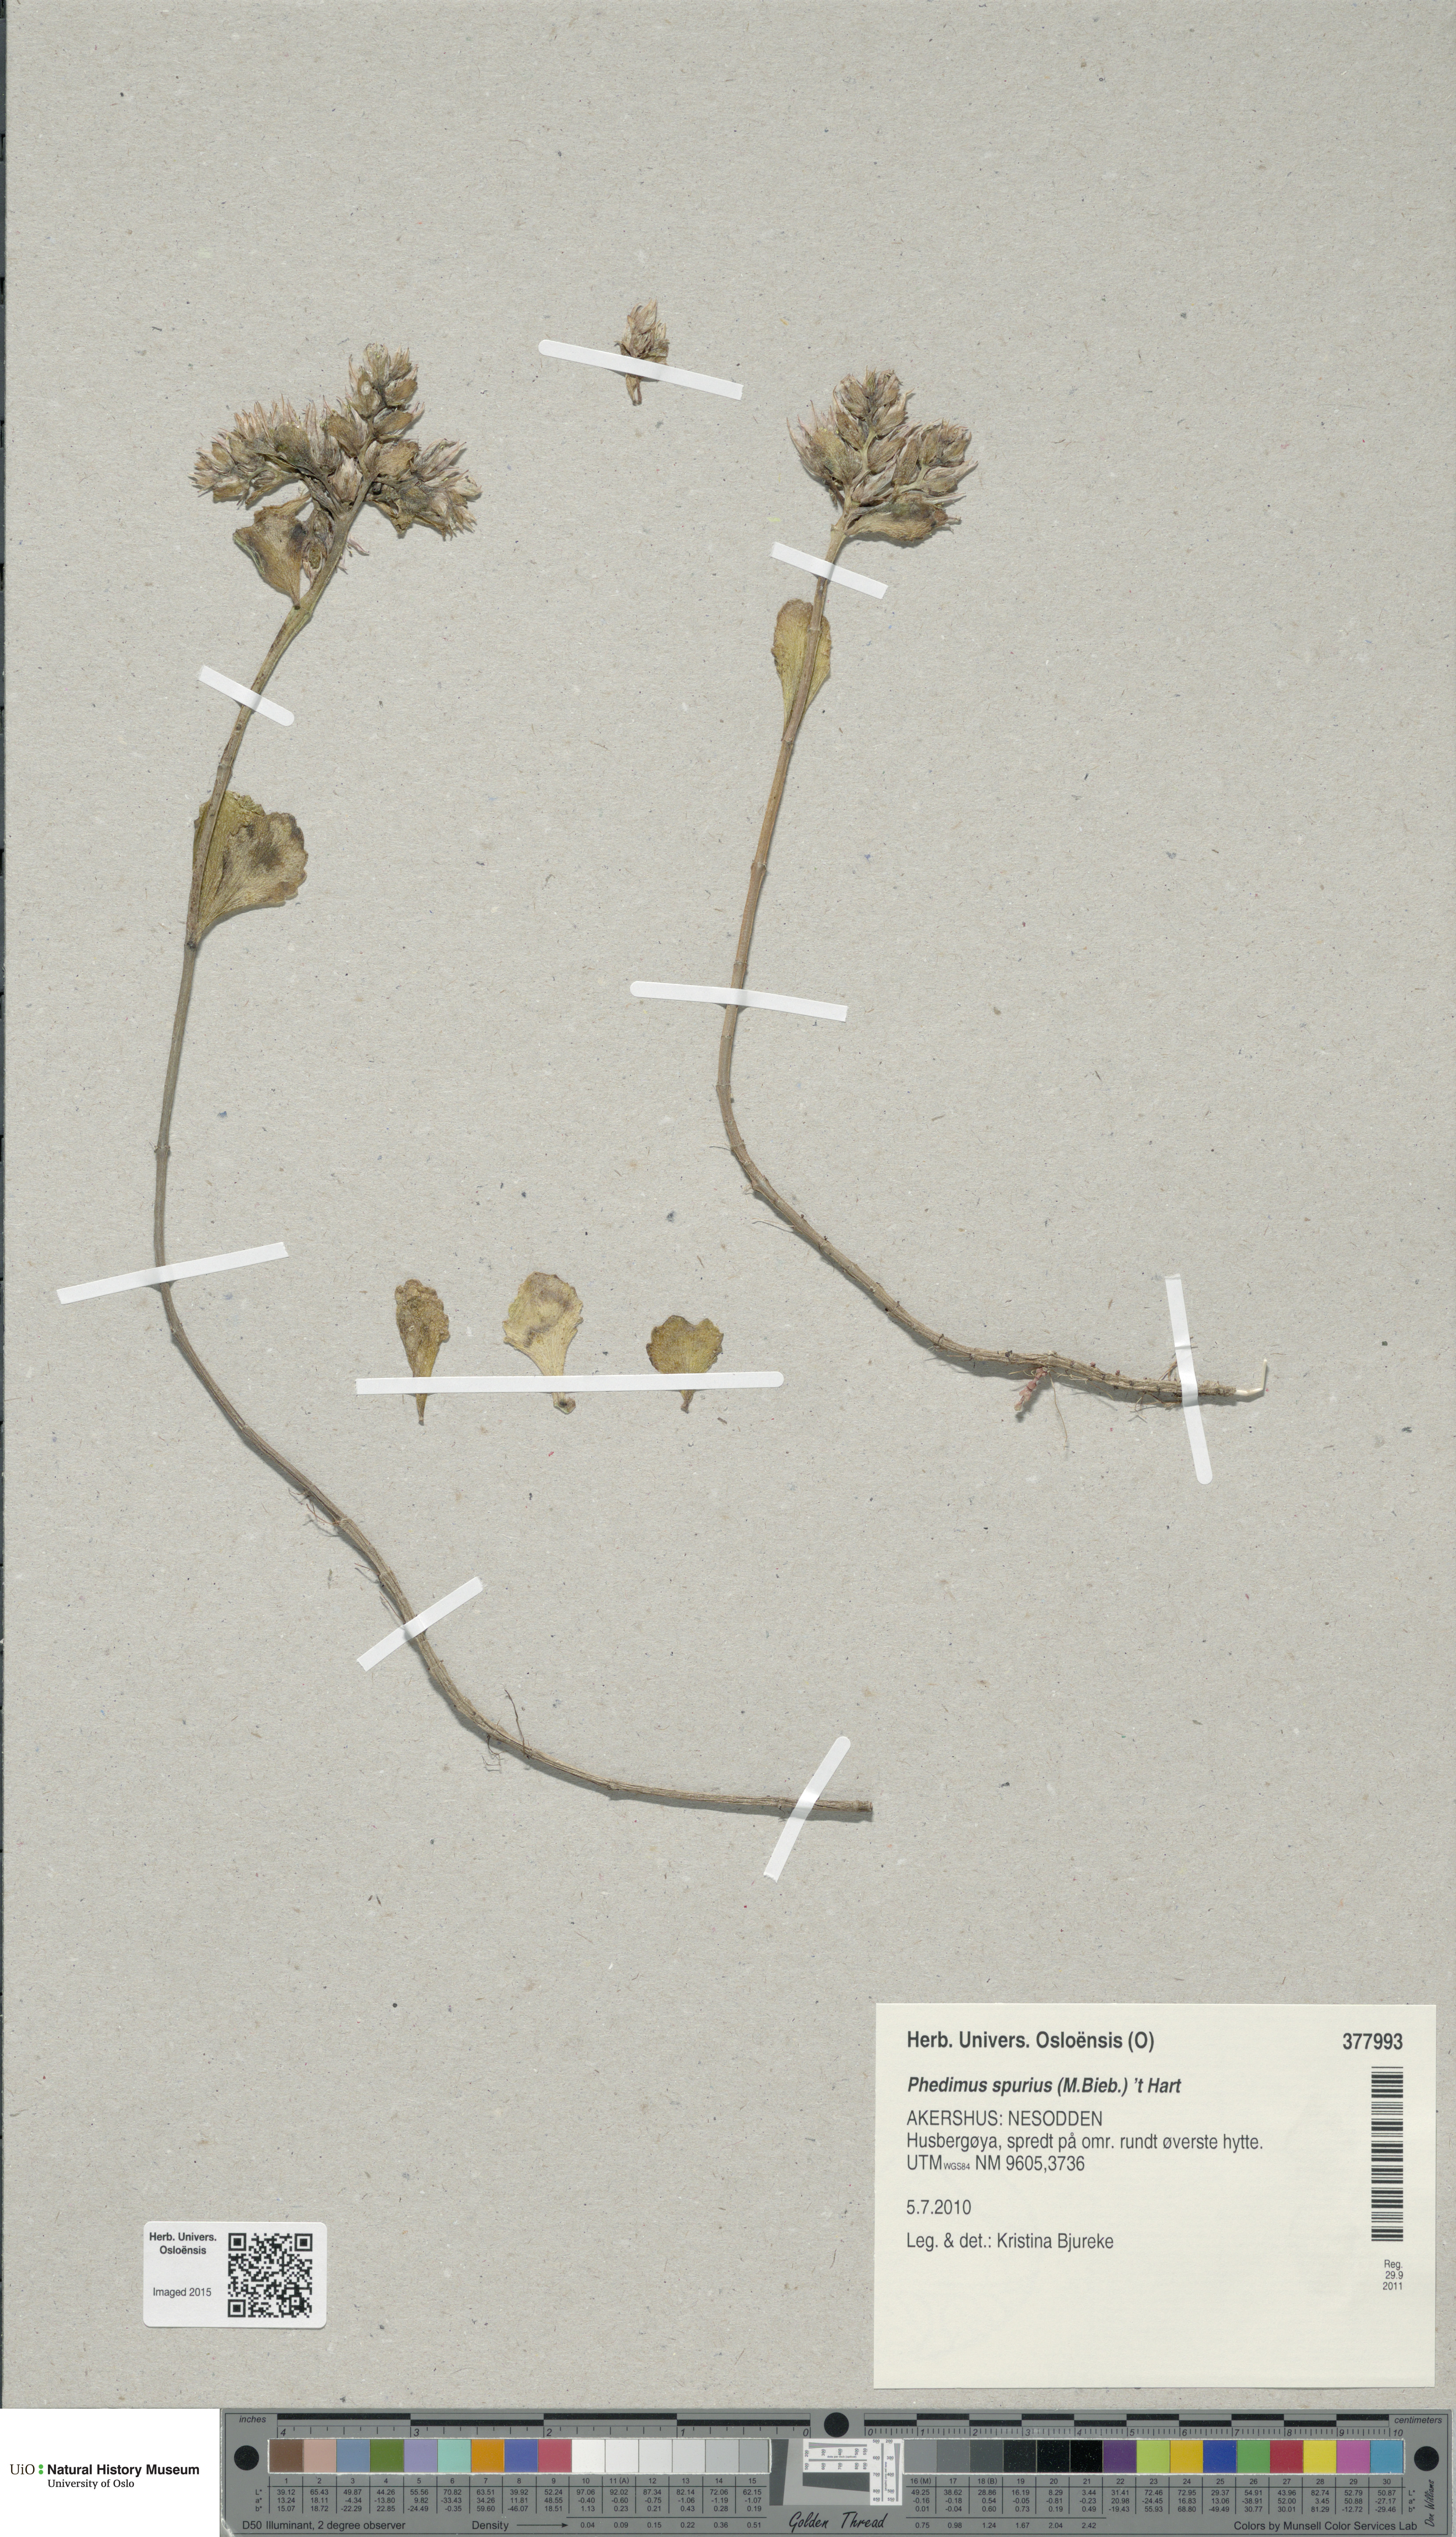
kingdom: Plantae
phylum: Tracheophyta
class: Magnoliopsida
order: Saxifragales
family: Crassulaceae
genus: Phedimus
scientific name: Phedimus spurius
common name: Caucasian stonecrop
